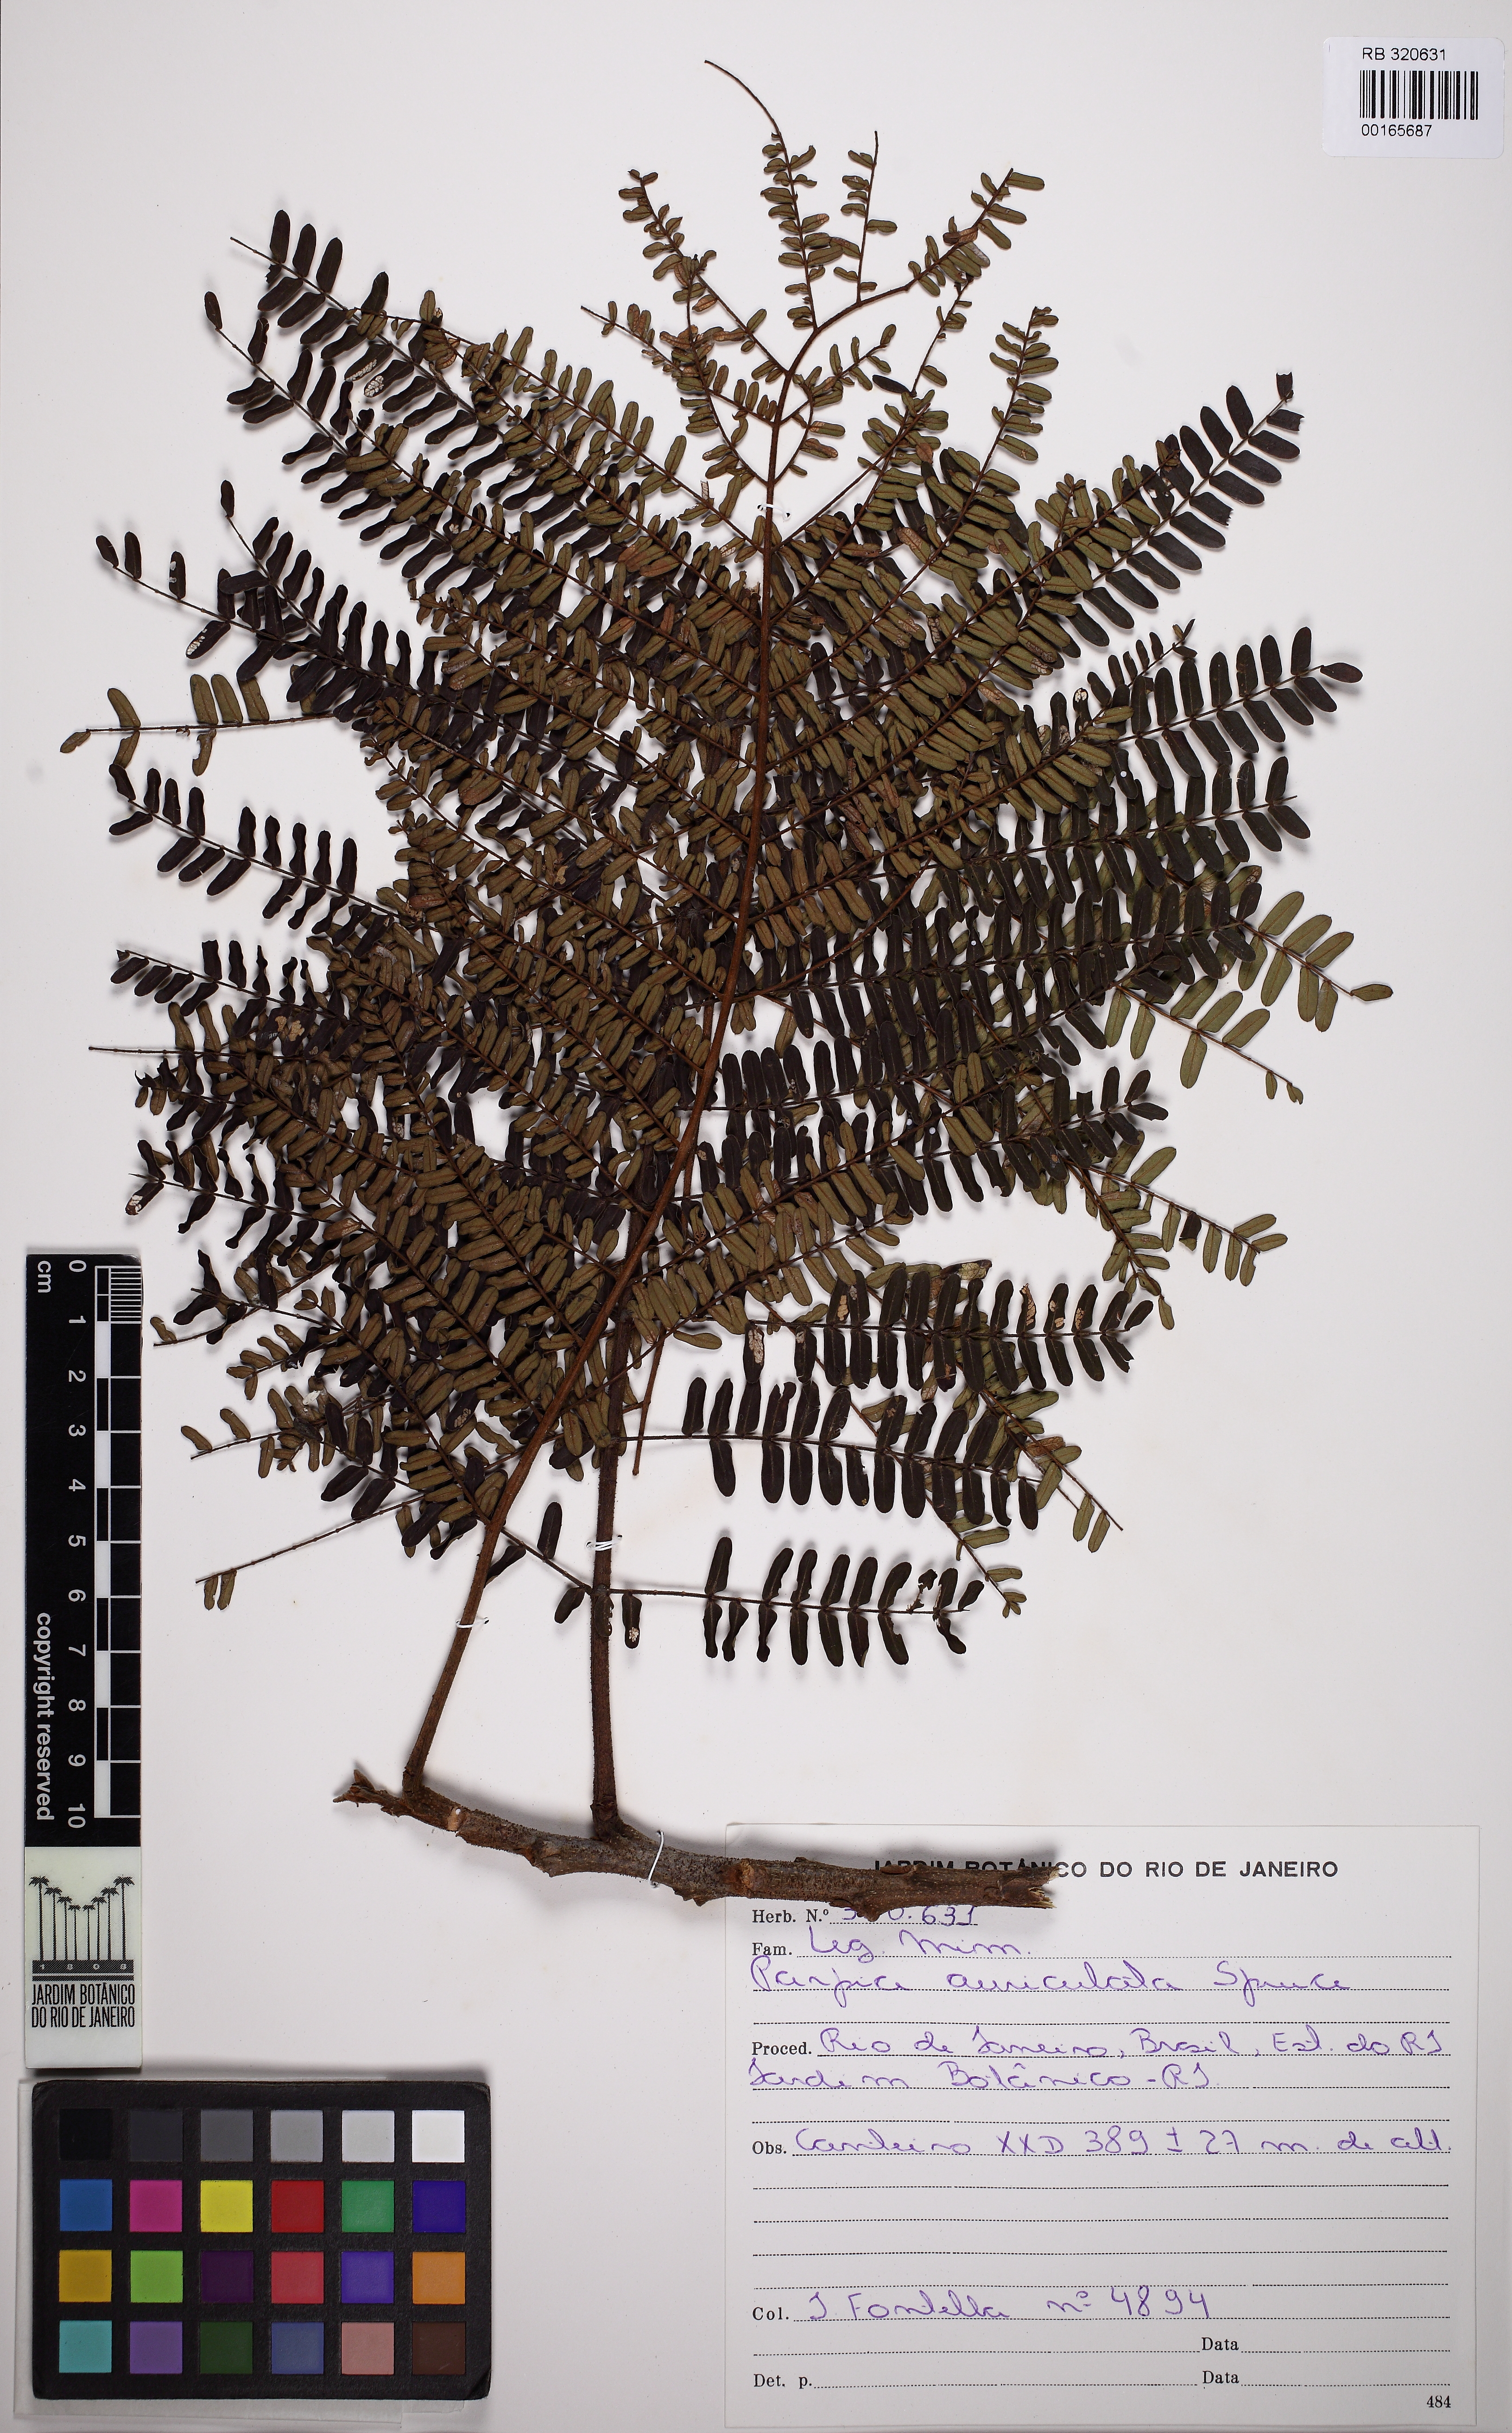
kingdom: Plantae
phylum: Tracheophyta
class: Magnoliopsida
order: Fabales
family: Fabaceae
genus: Parkia
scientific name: Parkia discolor
